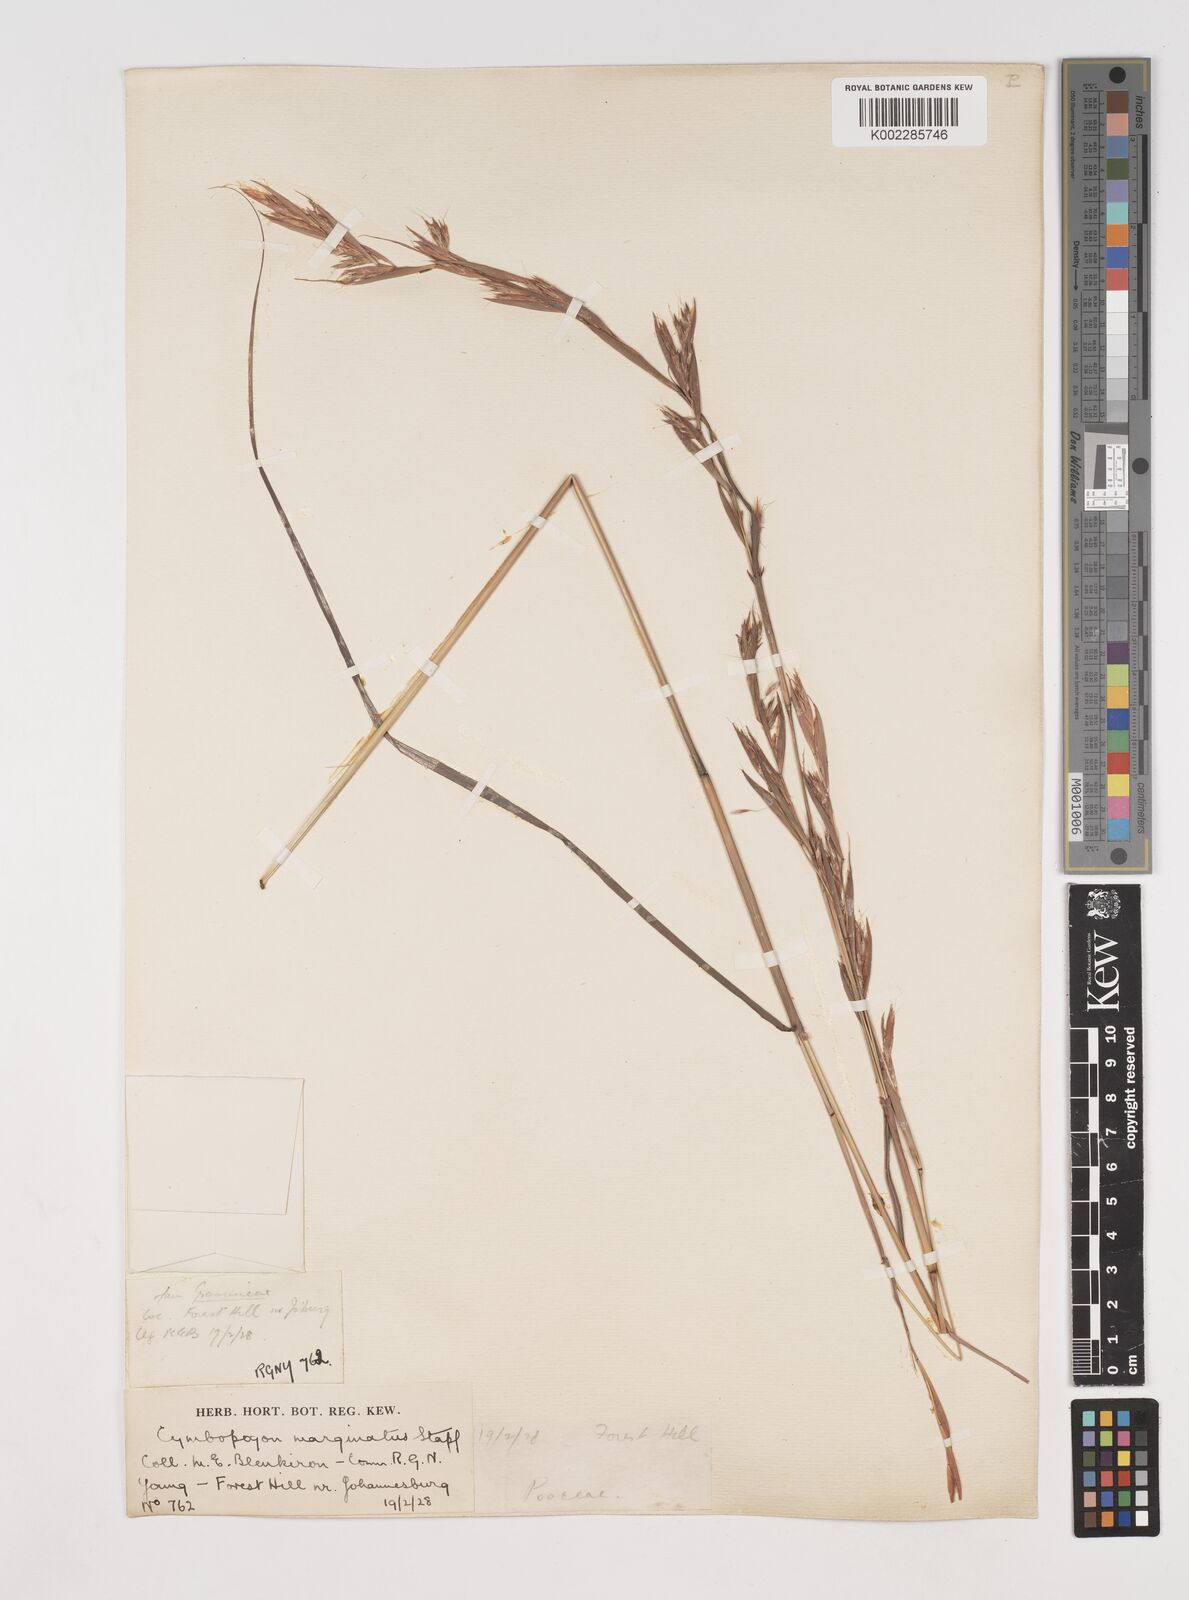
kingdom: Plantae
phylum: Tracheophyta
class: Liliopsida
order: Poales
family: Poaceae
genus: Cymbopogon
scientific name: Cymbopogon nardus
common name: Giant turpentine grass
